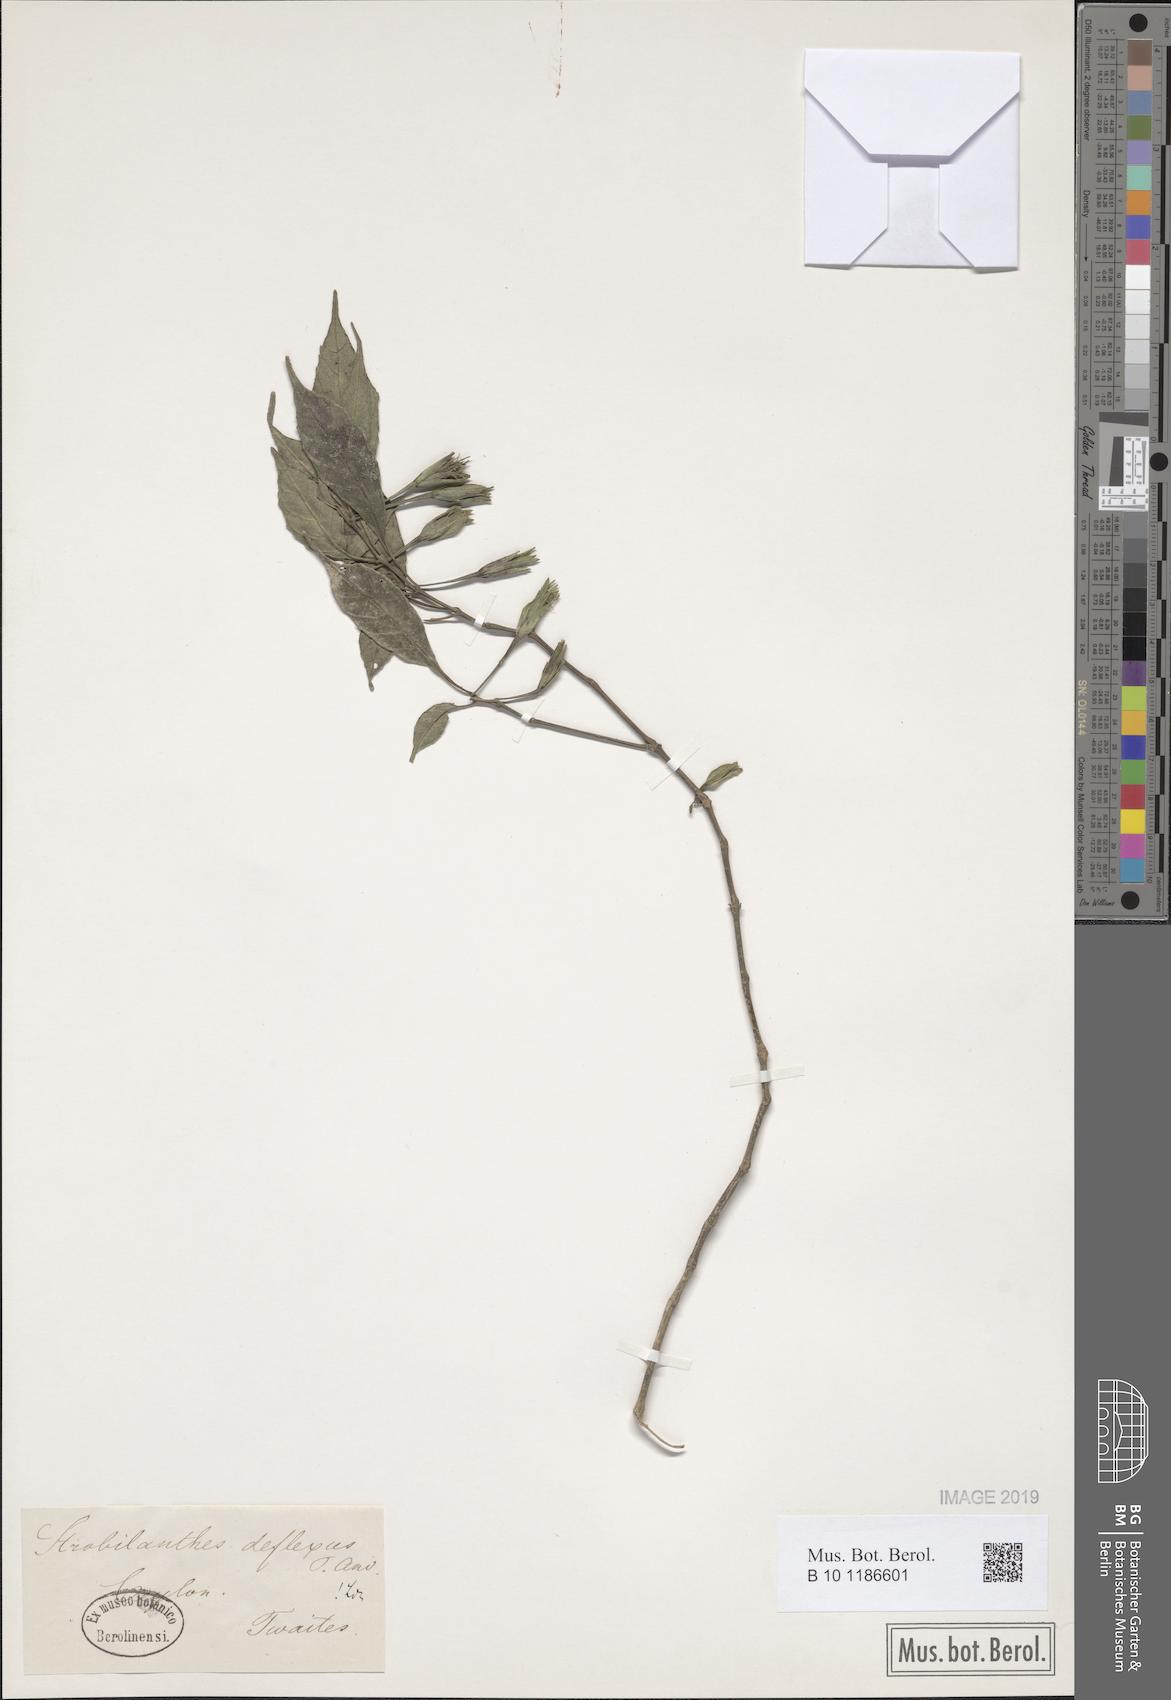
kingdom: Plantae
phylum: Tracheophyta
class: Magnoliopsida
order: Lamiales
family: Acanthaceae
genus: Strobilanthes
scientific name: Strobilanthes deflexa
